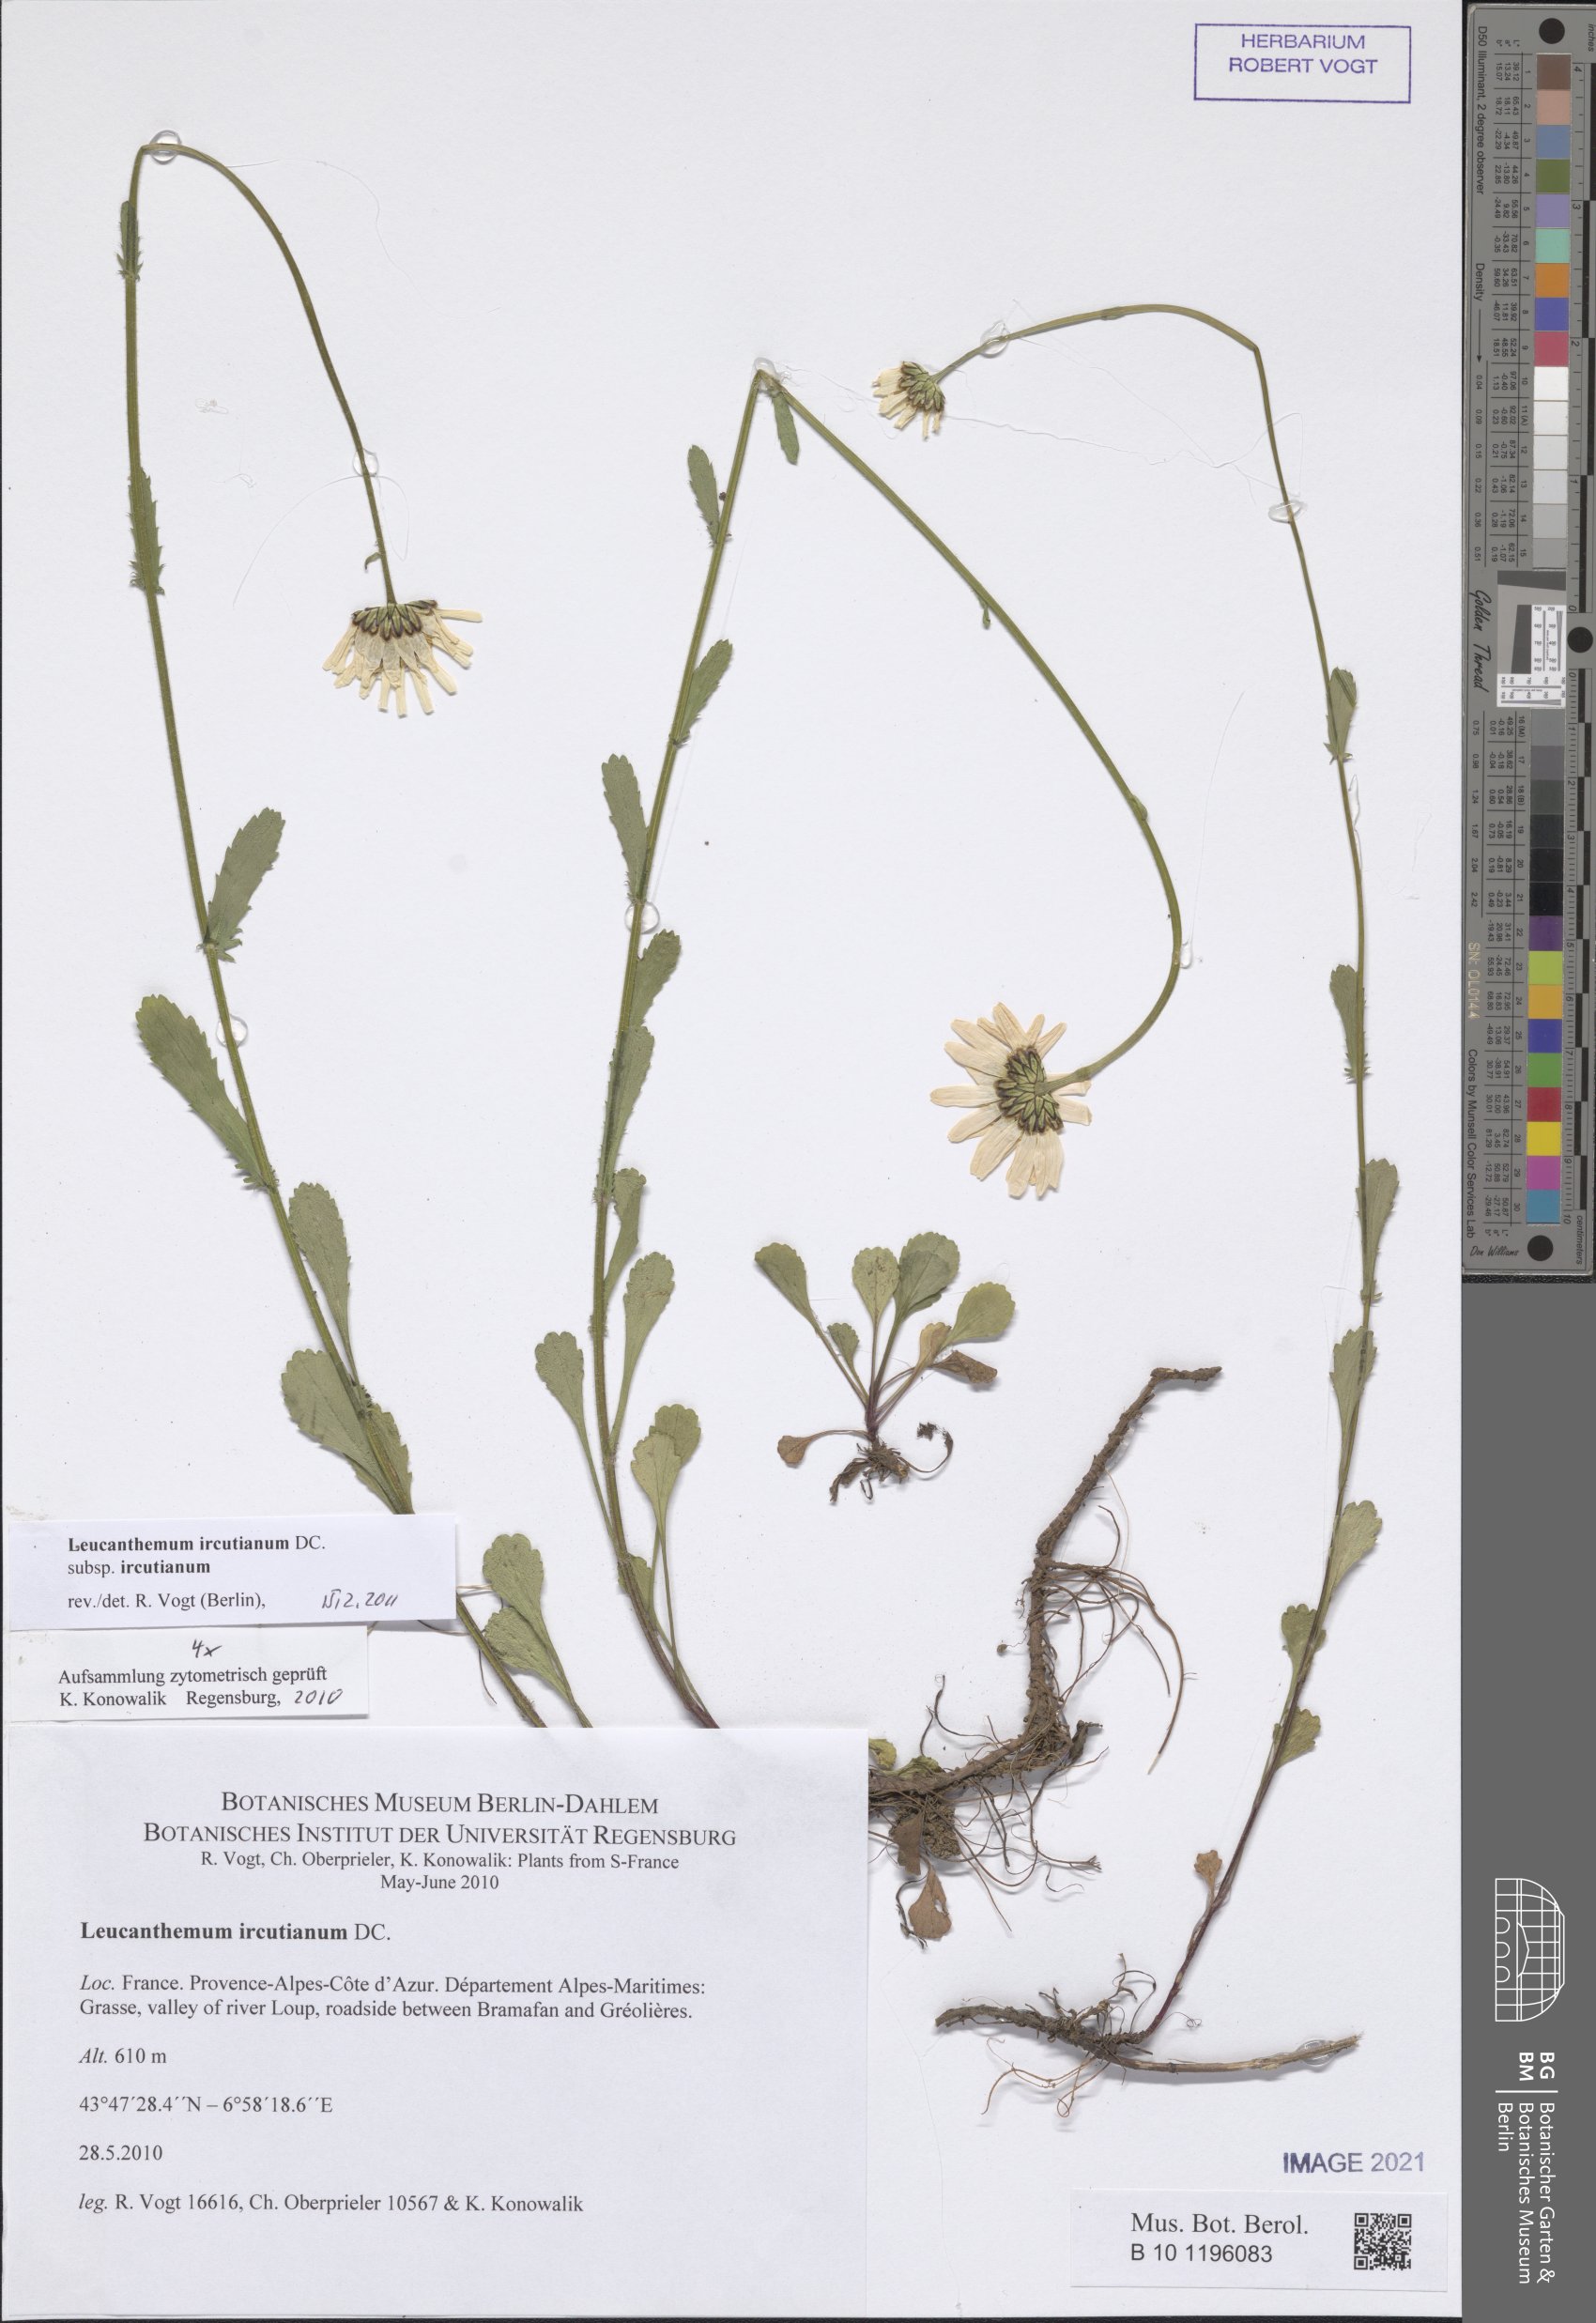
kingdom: Plantae
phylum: Tracheophyta
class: Magnoliopsida
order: Asterales
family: Asteraceae
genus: Leucanthemum
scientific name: Leucanthemum ircutianum
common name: Daisy
